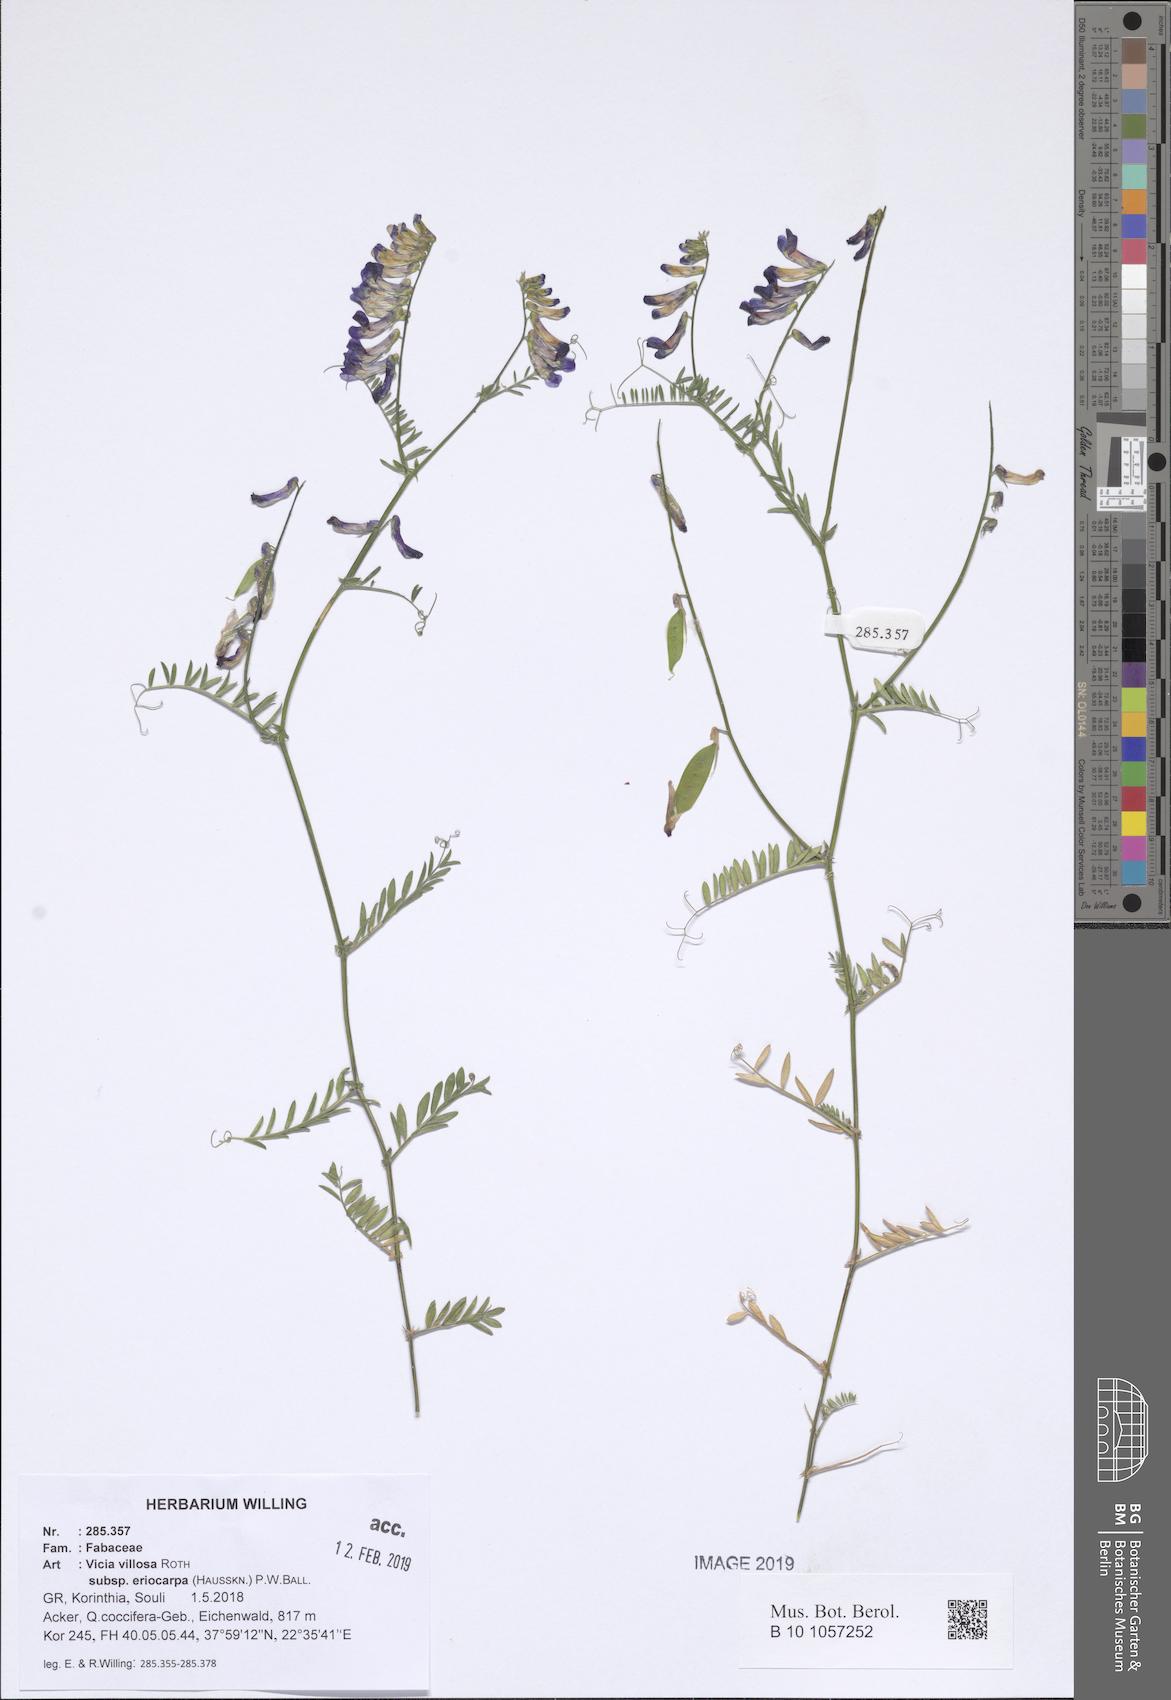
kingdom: Plantae
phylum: Tracheophyta
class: Magnoliopsida
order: Fabales
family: Fabaceae
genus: Vicia
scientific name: Vicia eriocarpa
